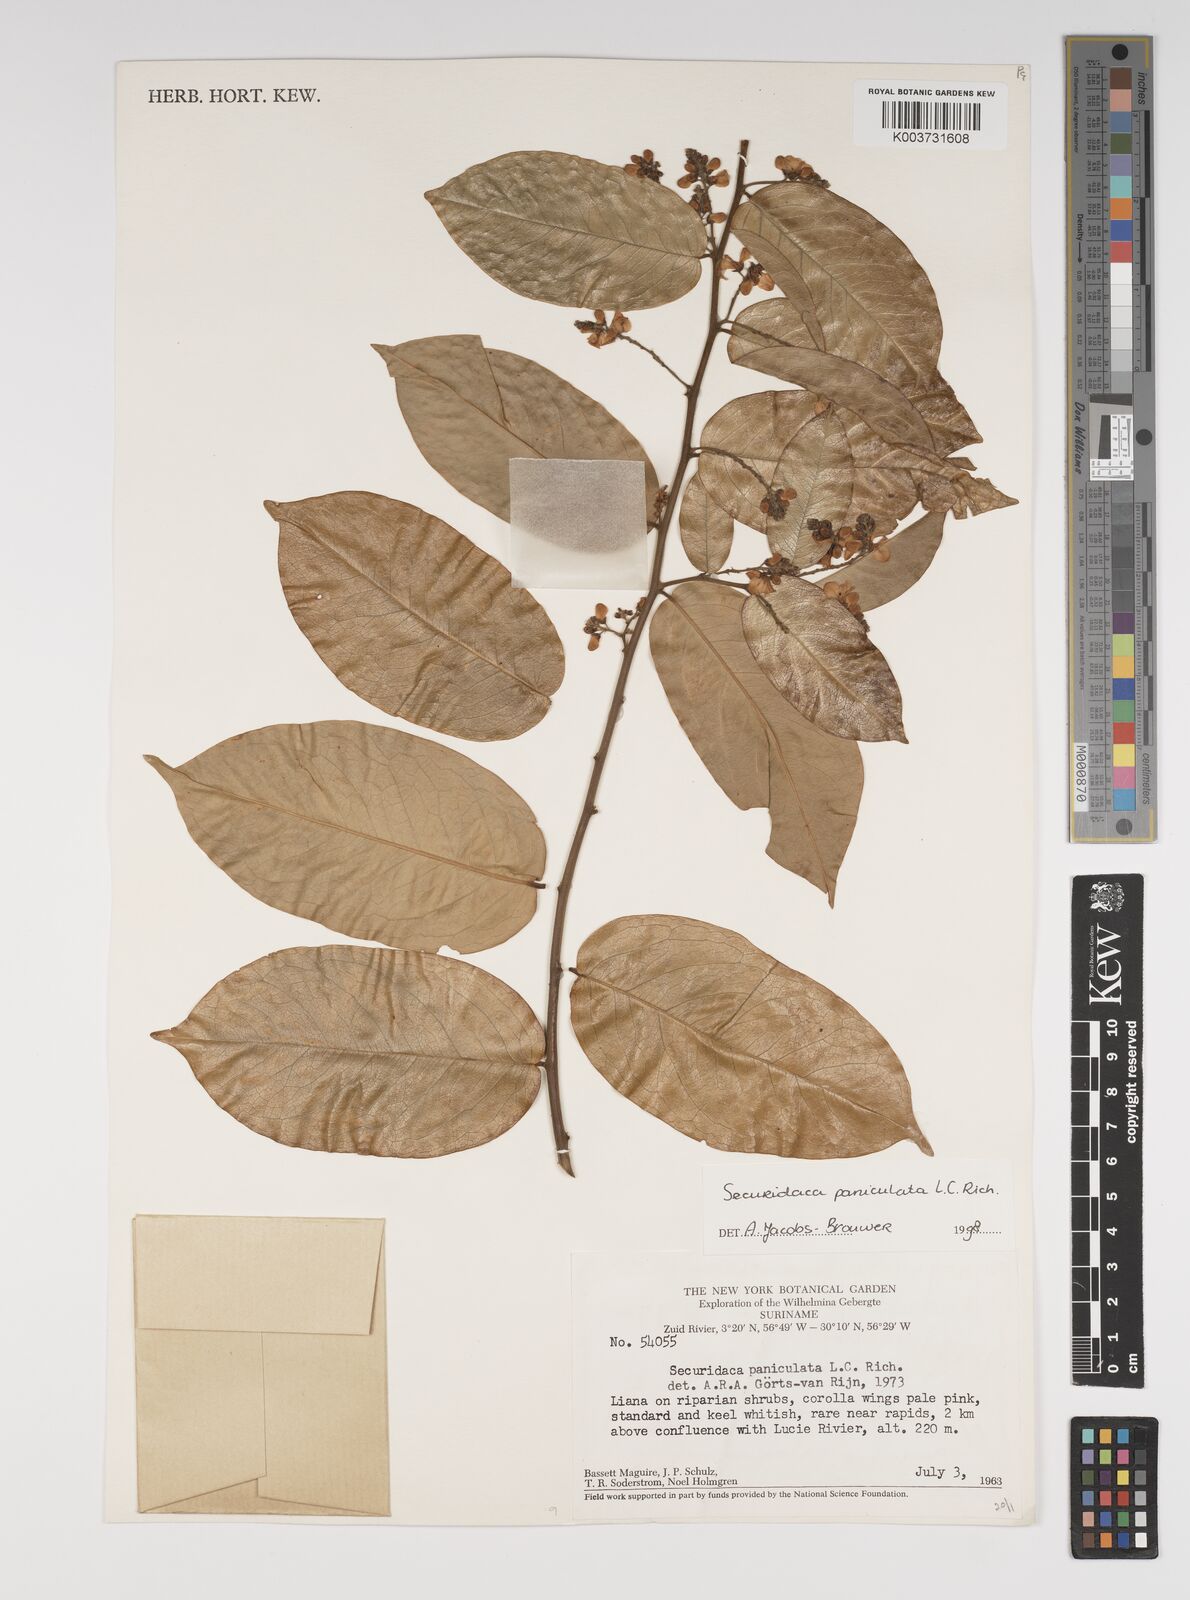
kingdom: Plantae
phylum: Tracheophyta
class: Magnoliopsida
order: Fabales
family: Polygalaceae
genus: Securidaca
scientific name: Securidaca paniculata
